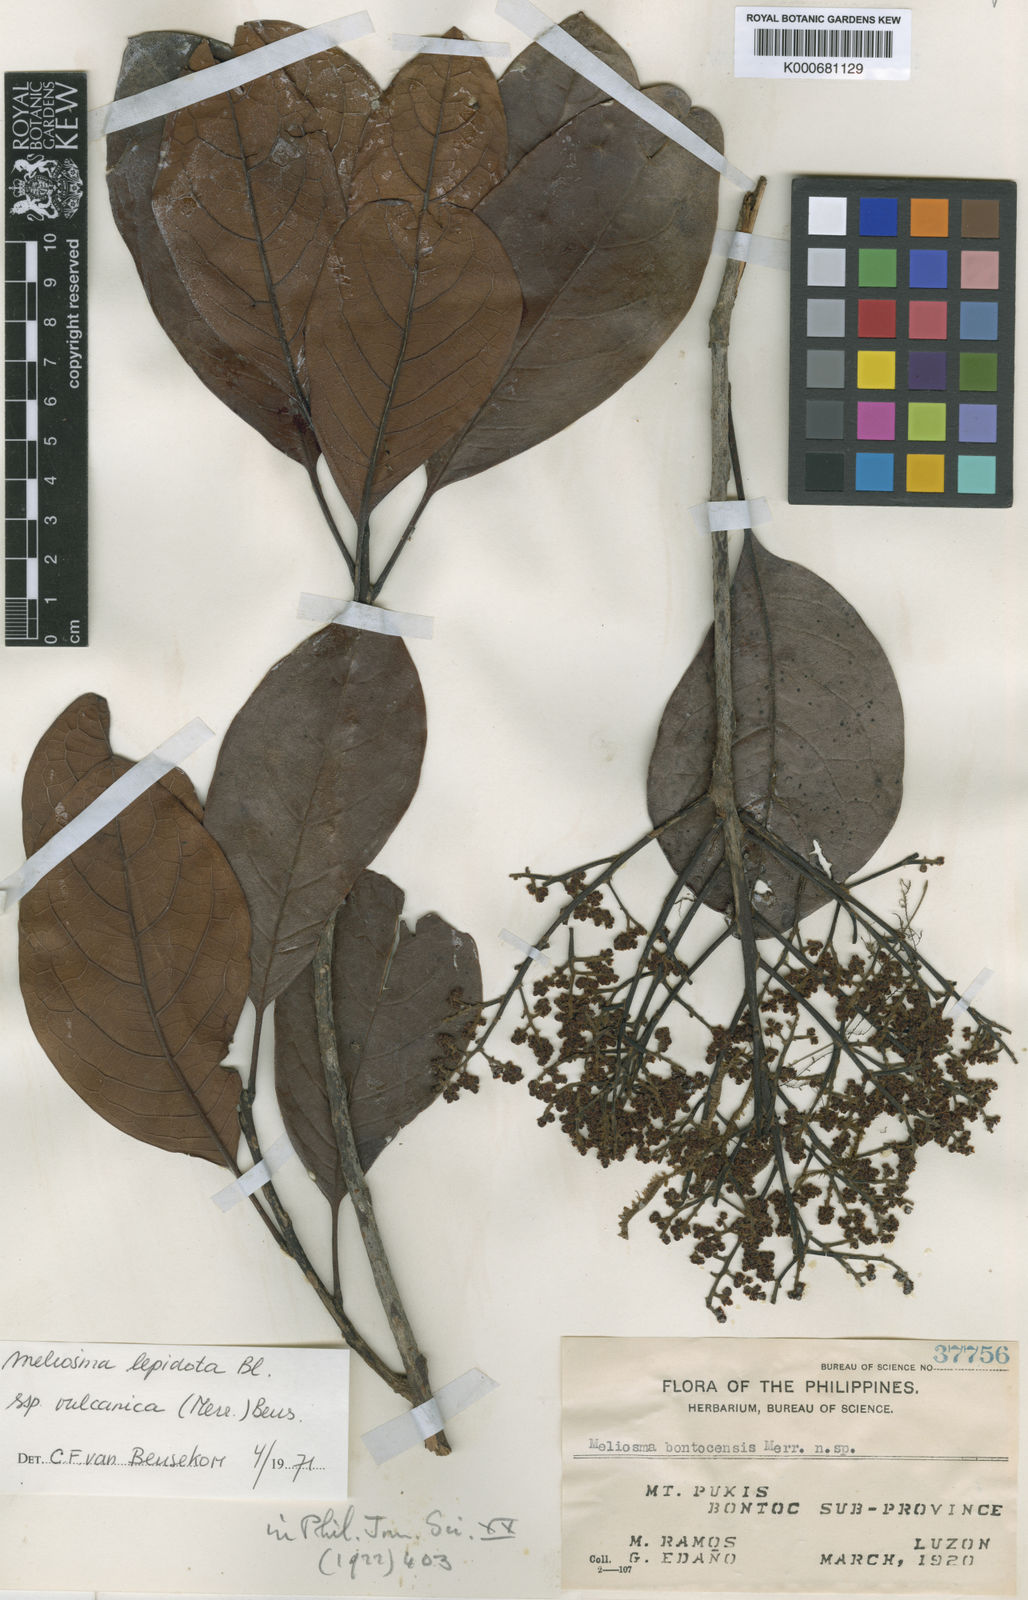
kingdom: Plantae
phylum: Tracheophyta
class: Magnoliopsida
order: Proteales
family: Sabiaceae
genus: Meliosma
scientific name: Meliosma lepidota
